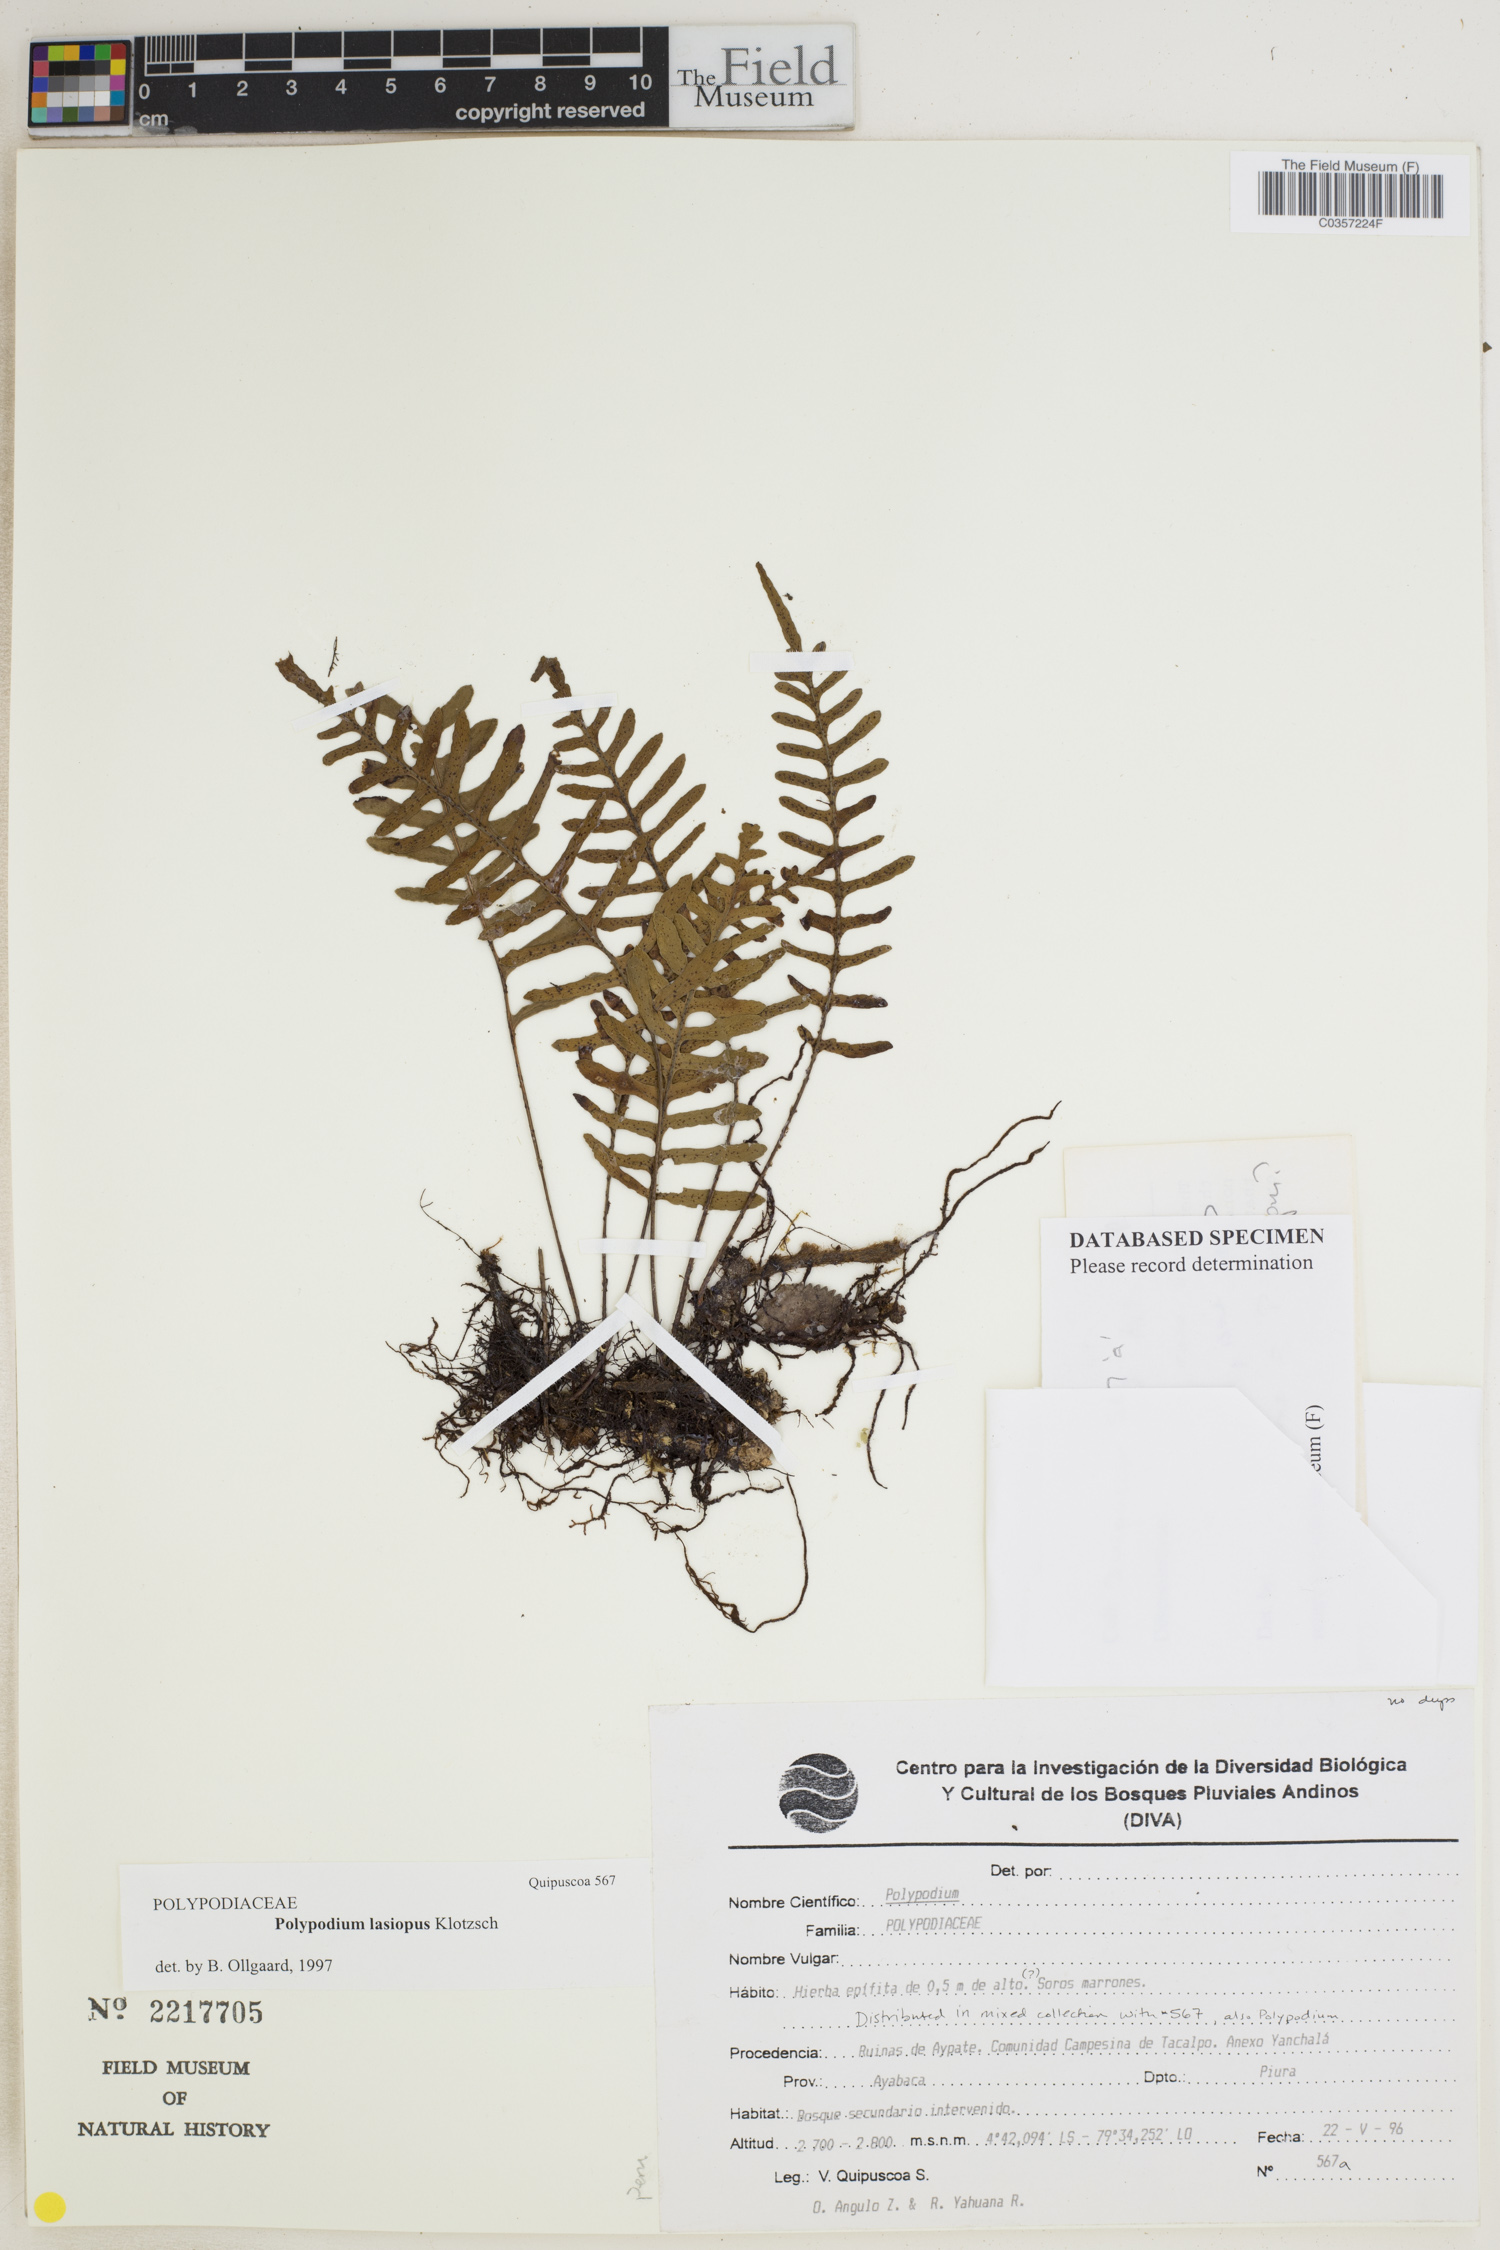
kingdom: Plantae
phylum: Tracheophyta
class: Polypodiopsida
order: Polypodiales
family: Polypodiaceae
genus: Serpocaulon
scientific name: Serpocaulon lasiopus
